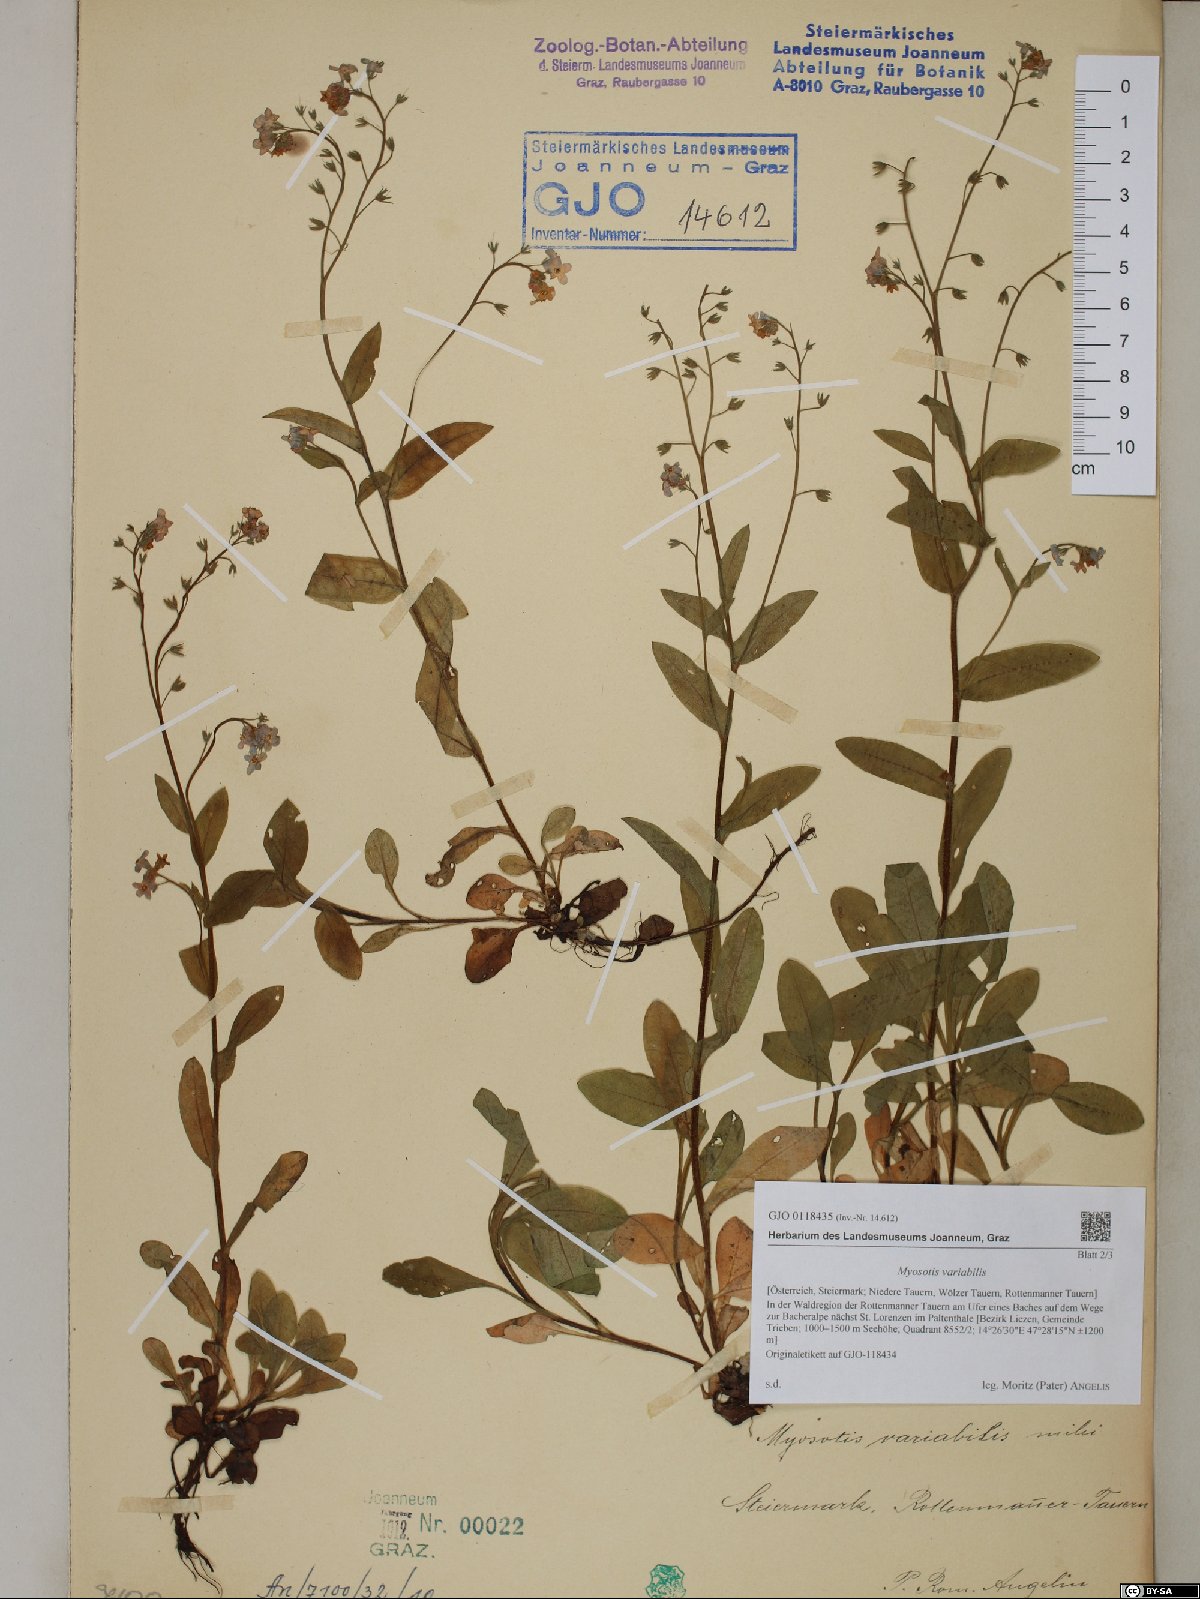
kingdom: Plantae
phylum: Tracheophyta
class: Magnoliopsida
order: Boraginales
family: Boraginaceae
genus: Myosotis
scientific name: Myosotis decumbens
